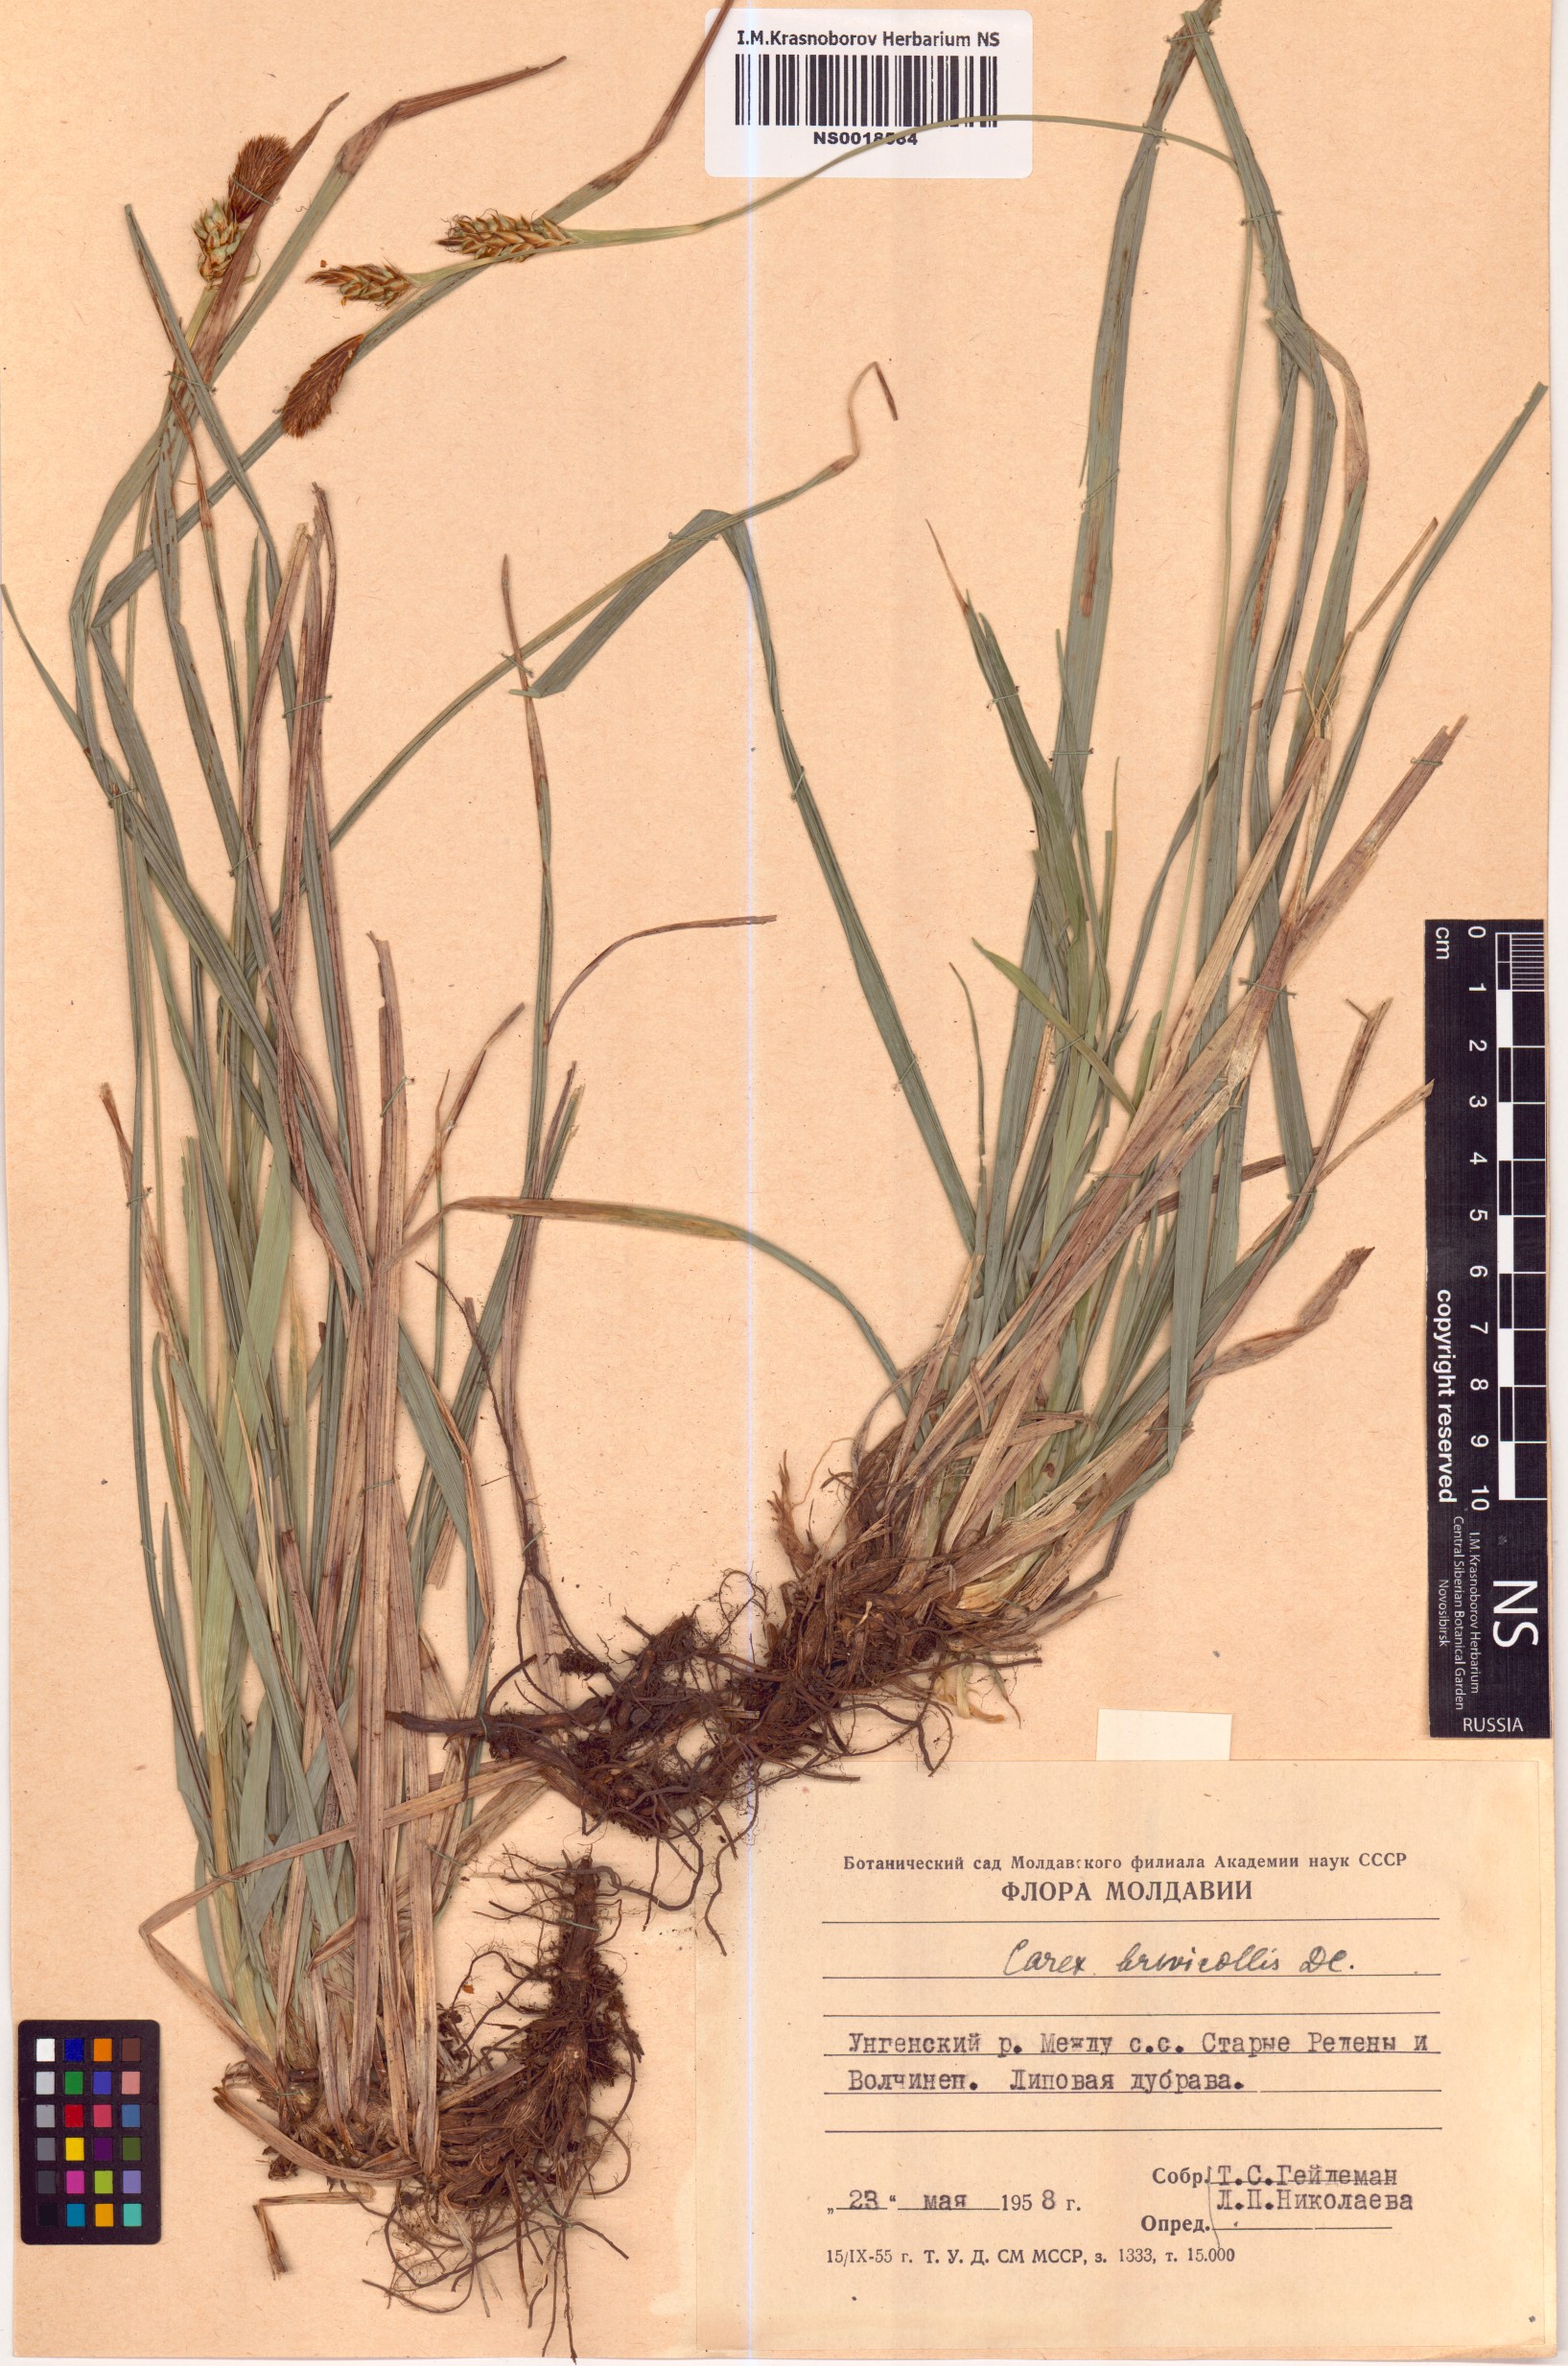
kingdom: Plantae
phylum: Tracheophyta
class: Liliopsida
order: Poales
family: Cyperaceae
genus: Carex
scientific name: Carex brevicollis
